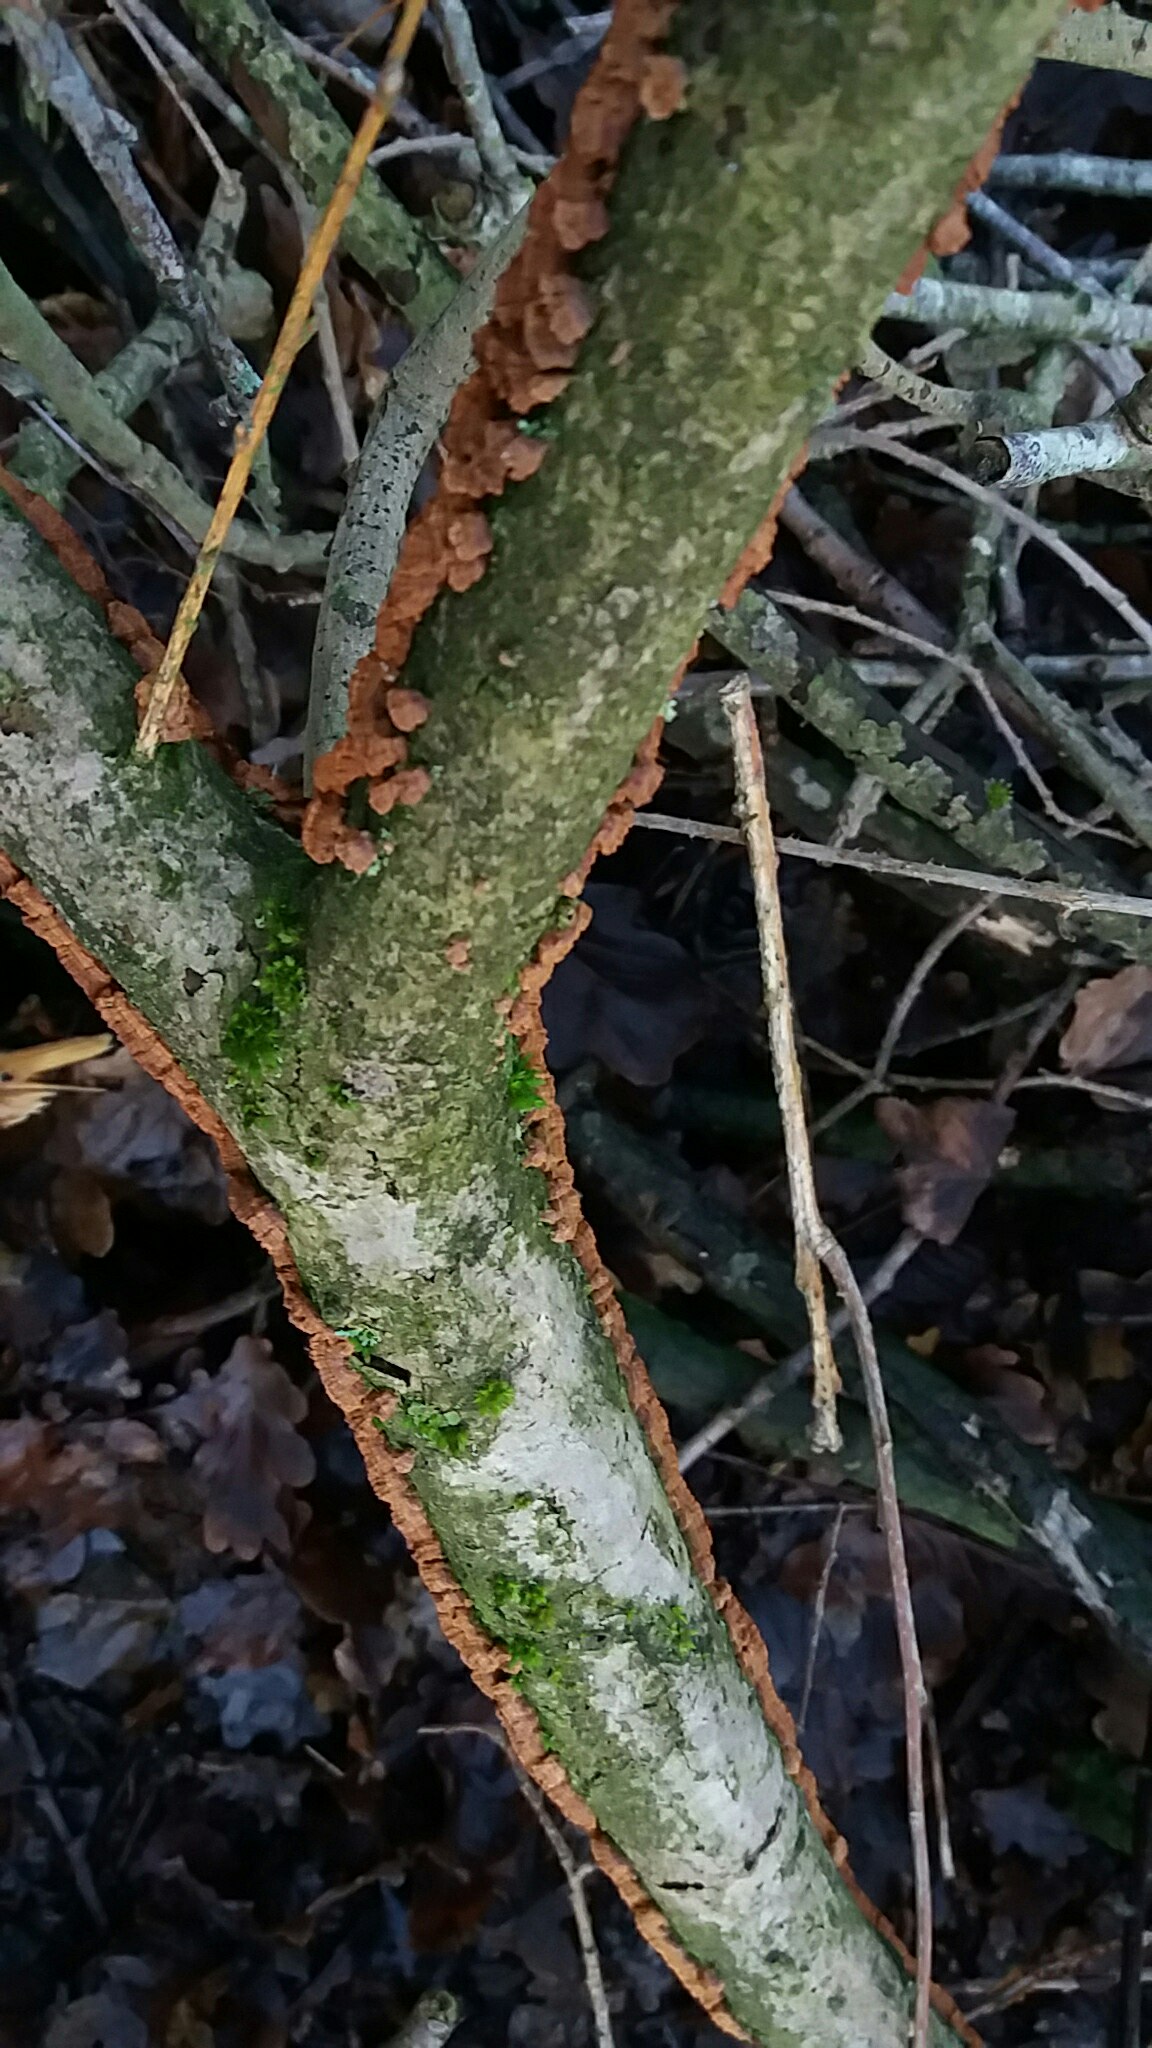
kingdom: Fungi
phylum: Basidiomycota
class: Agaricomycetes
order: Hymenochaetales
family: Hymenochaetaceae
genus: Hydnoporia
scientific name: Hydnoporia tabacina
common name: tobaksbrun ruslædersvamp
